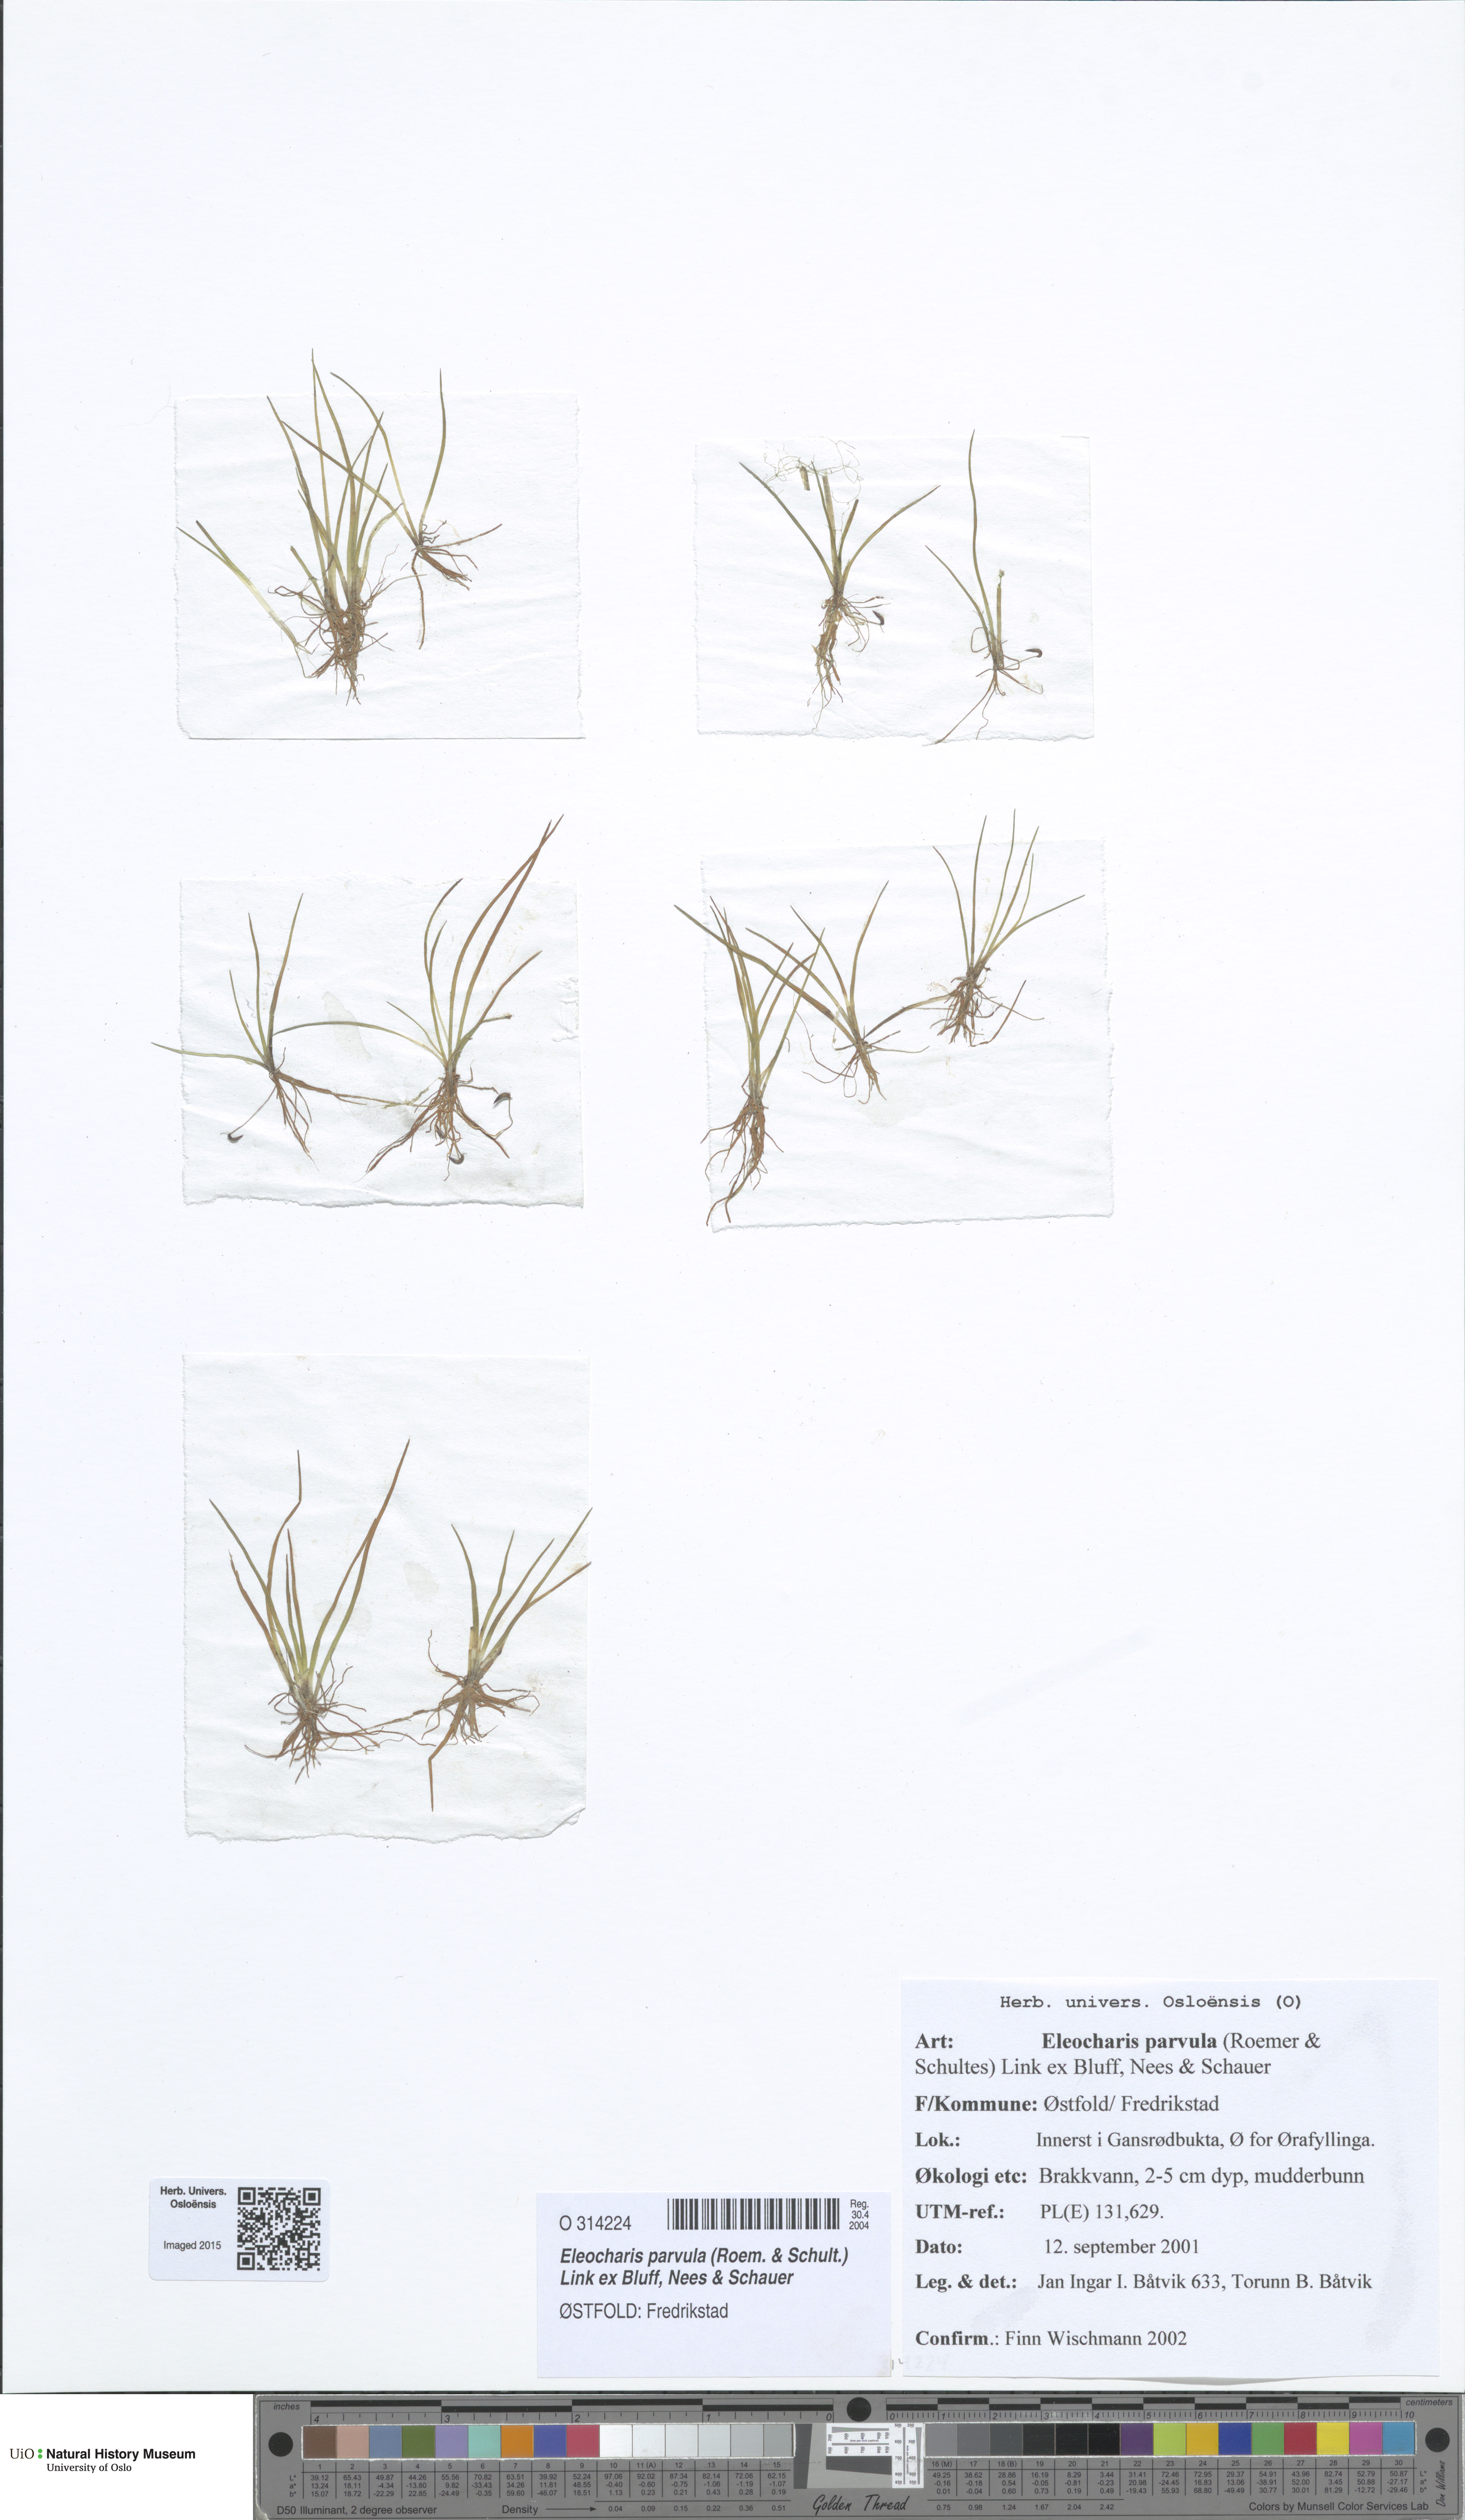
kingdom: Plantae
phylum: Tracheophyta
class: Liliopsida
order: Poales
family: Cyperaceae
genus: Eleocharis
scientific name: Eleocharis parvula
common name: Dwarf spike-rush
